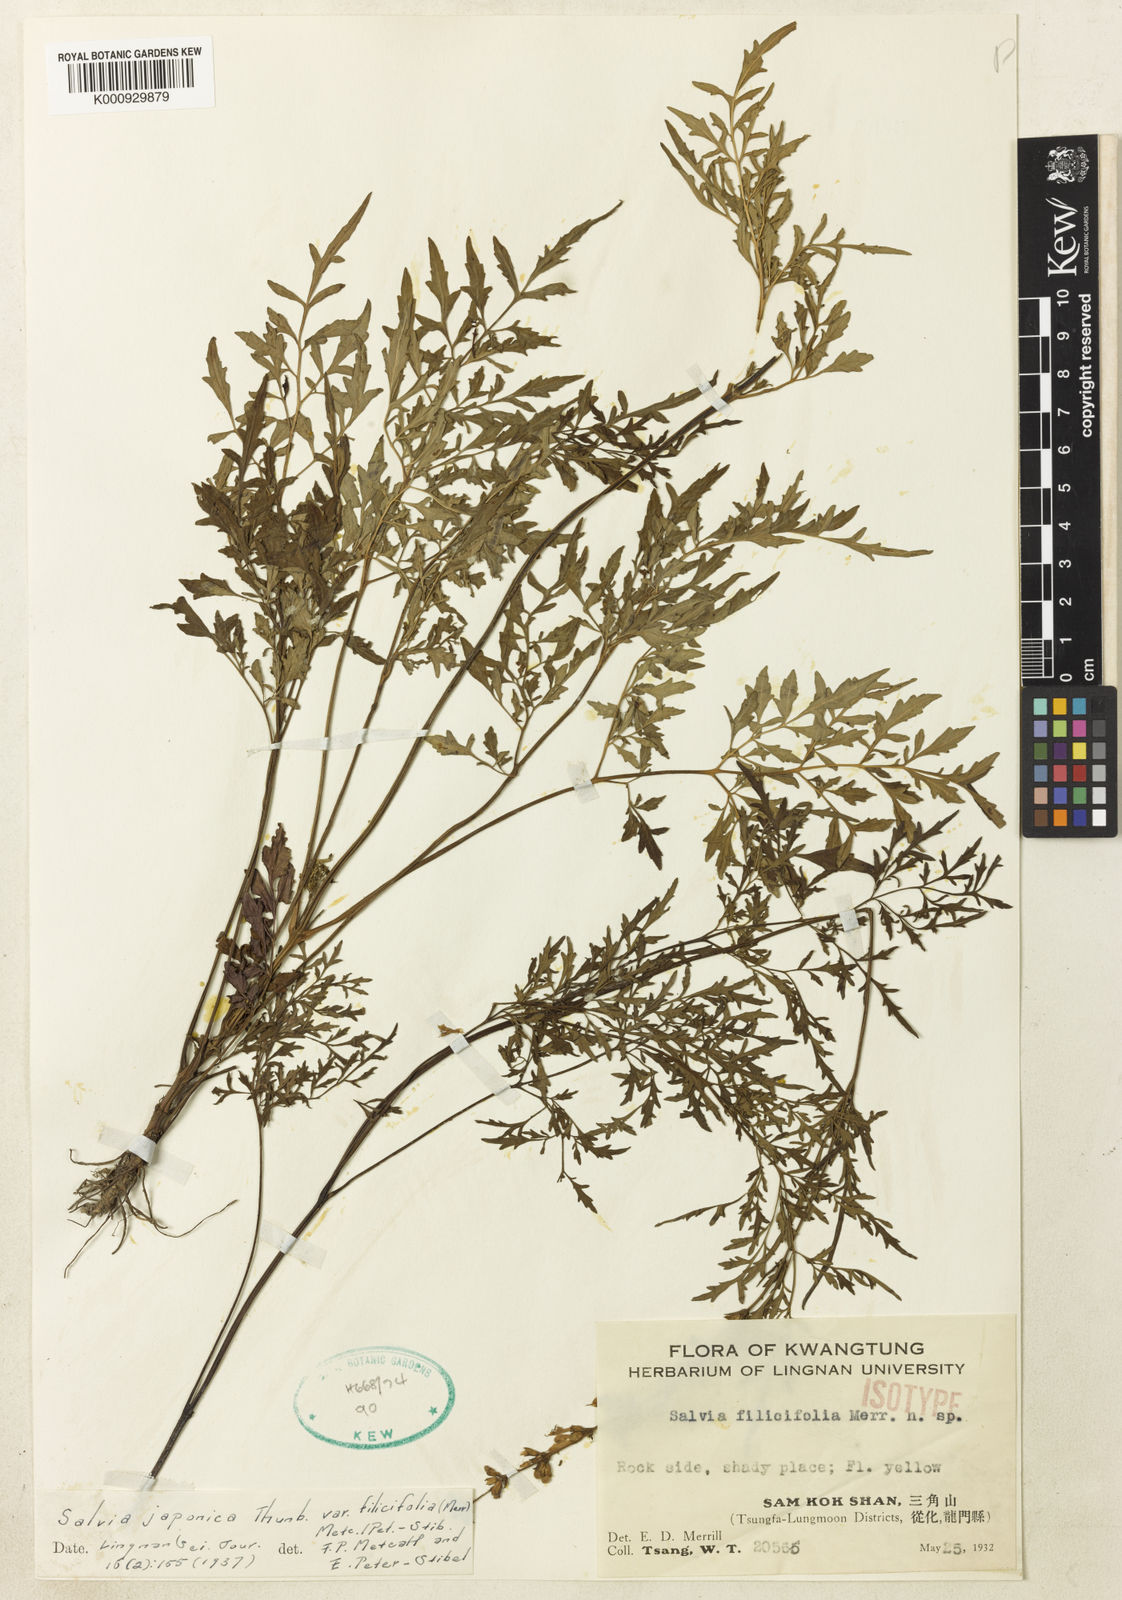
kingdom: Plantae
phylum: Tracheophyta
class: Magnoliopsida
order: Lamiales
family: Lamiaceae
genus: Salvia
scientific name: Salvia japonica
